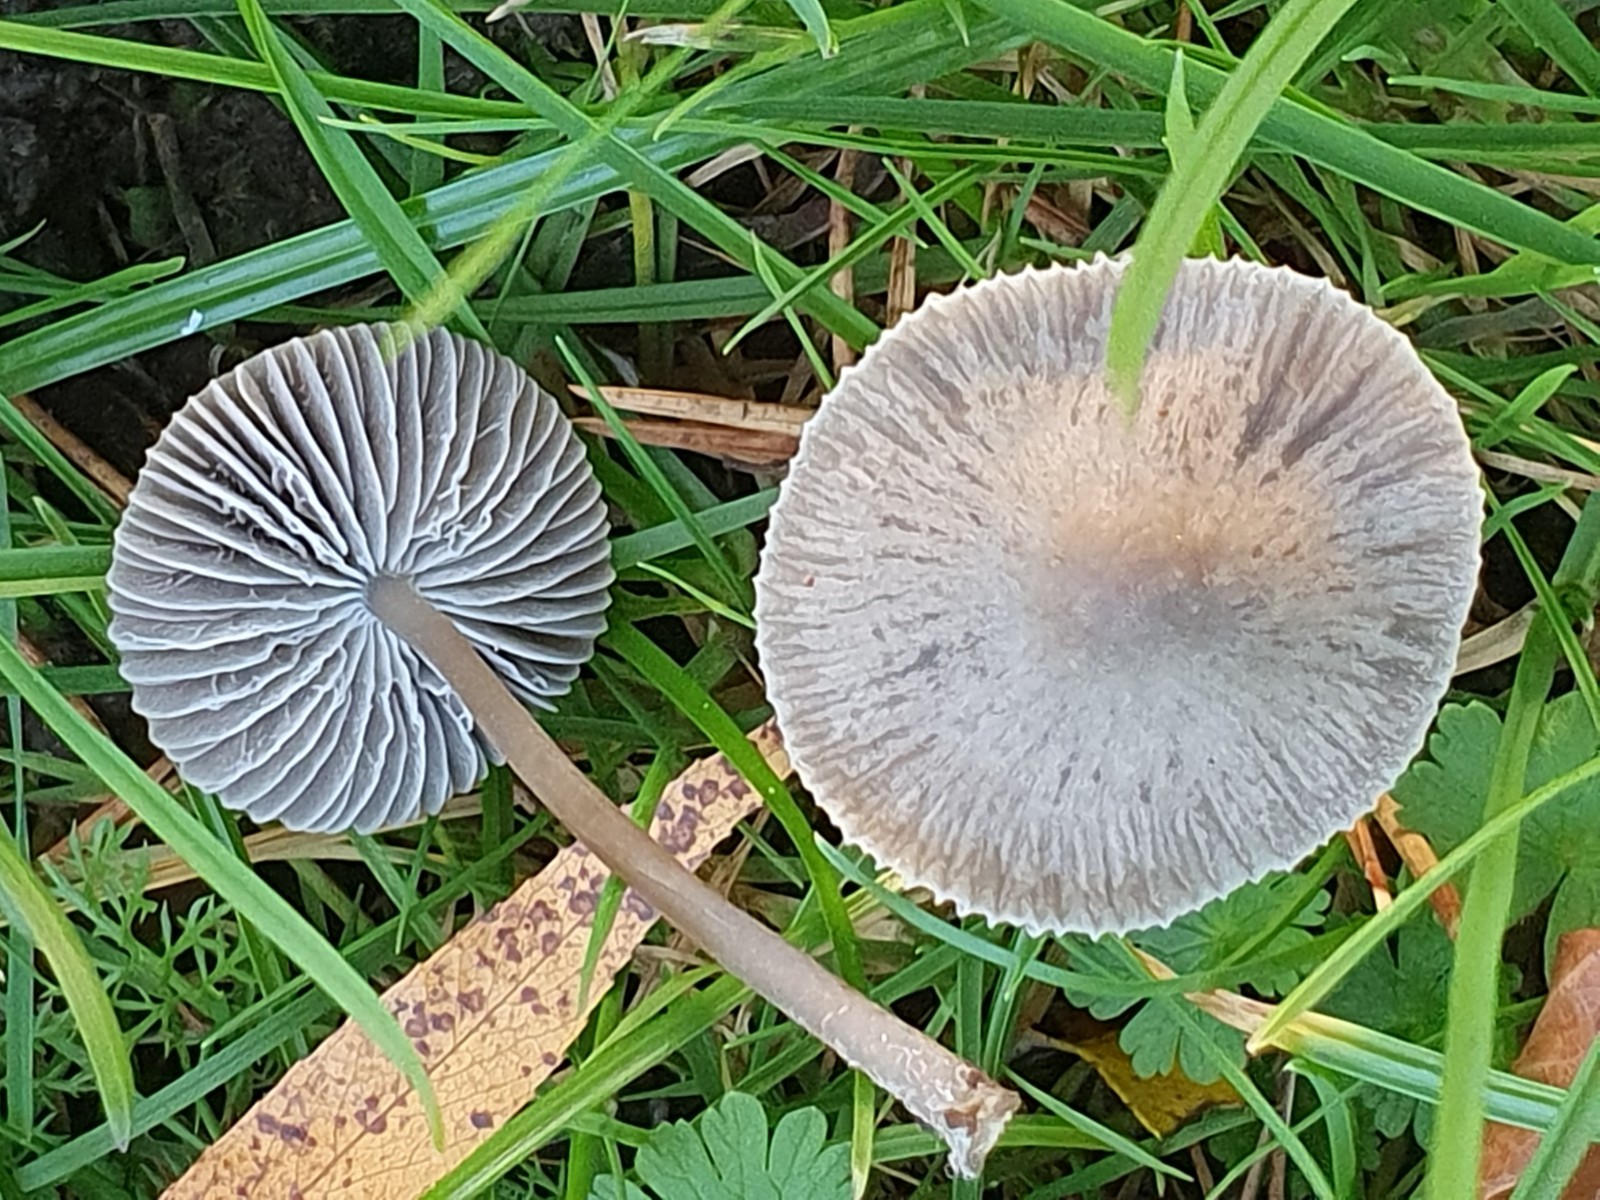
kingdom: Fungi
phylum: Basidiomycota
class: Agaricomycetes
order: Agaricales
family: Mycenaceae
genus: Mycena
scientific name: Mycena aetites
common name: plæne-huesvamp
